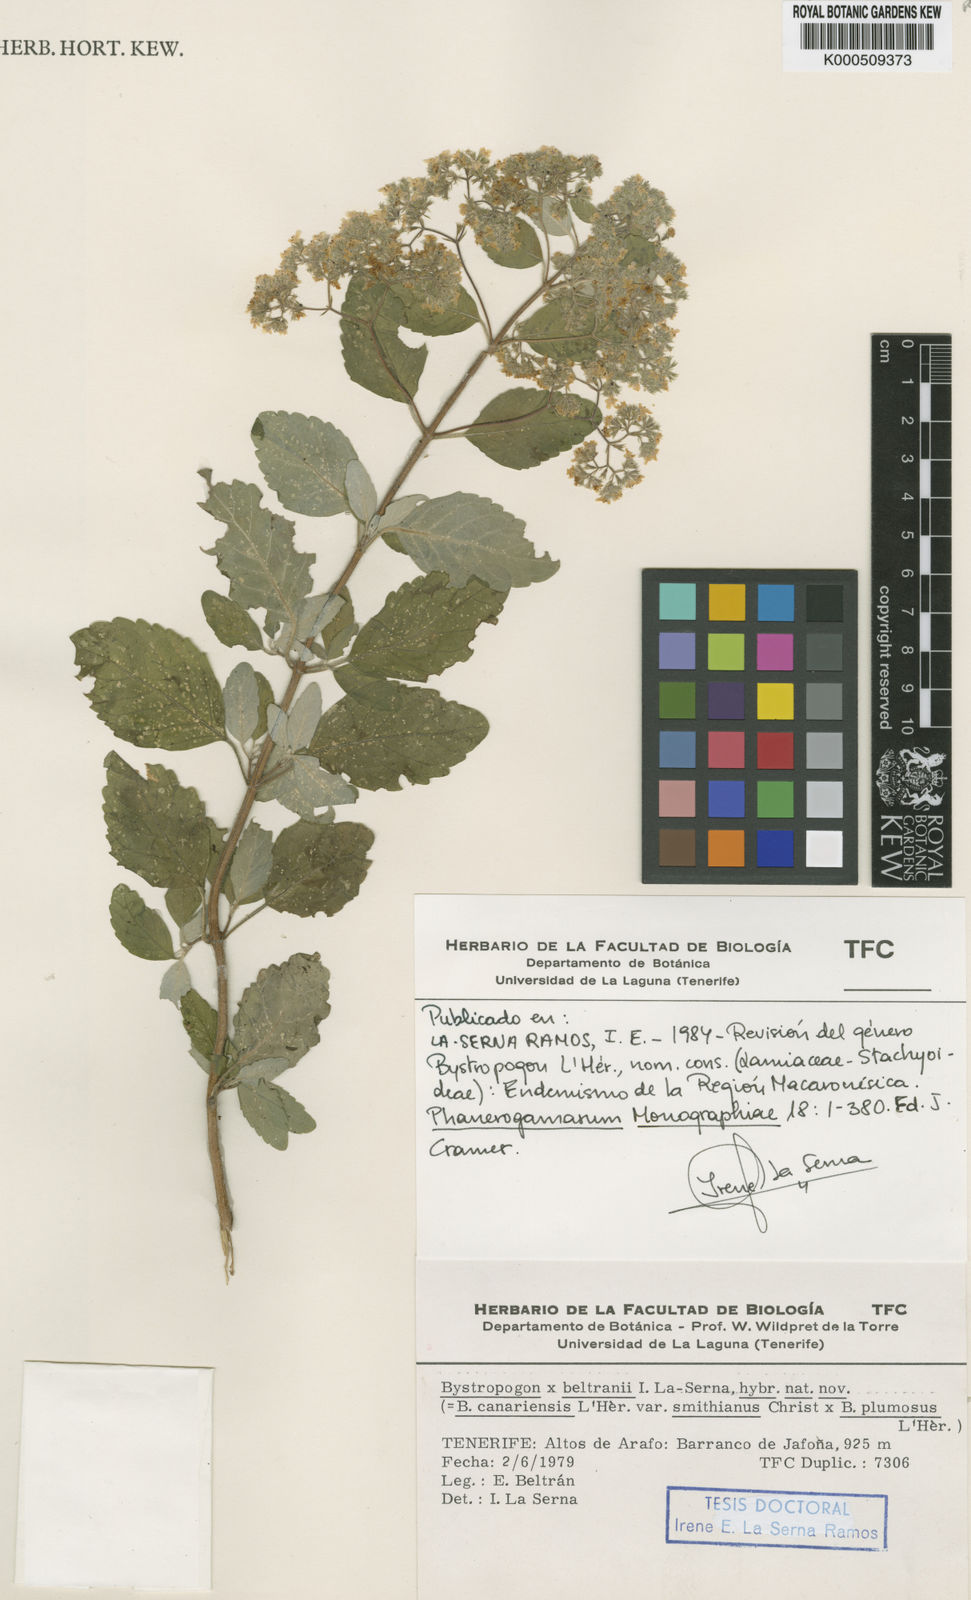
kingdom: Plantae
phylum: Tracheophyta
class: Magnoliopsida
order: Lamiales
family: Lamiaceae
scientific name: Lamiaceae
